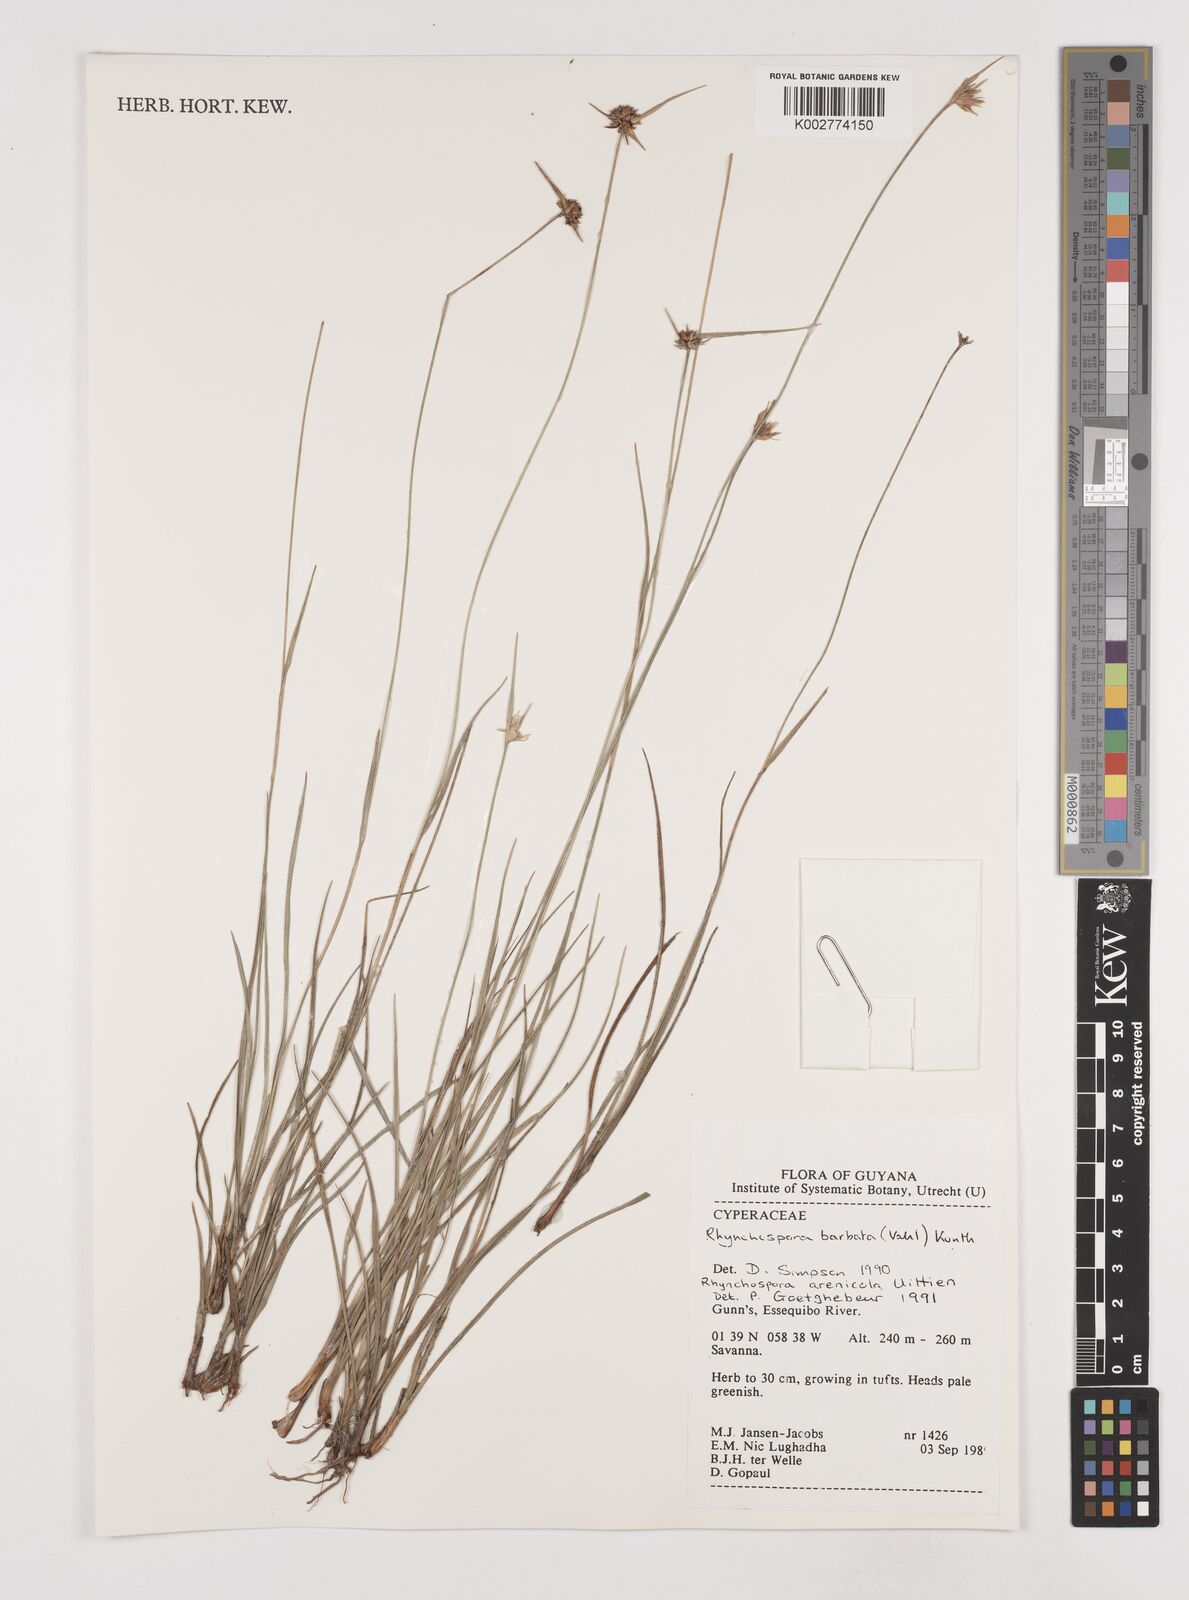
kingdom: Plantae
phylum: Tracheophyta
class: Liliopsida
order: Poales
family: Cyperaceae
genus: Rhynchospora
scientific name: Rhynchospora arenicola
